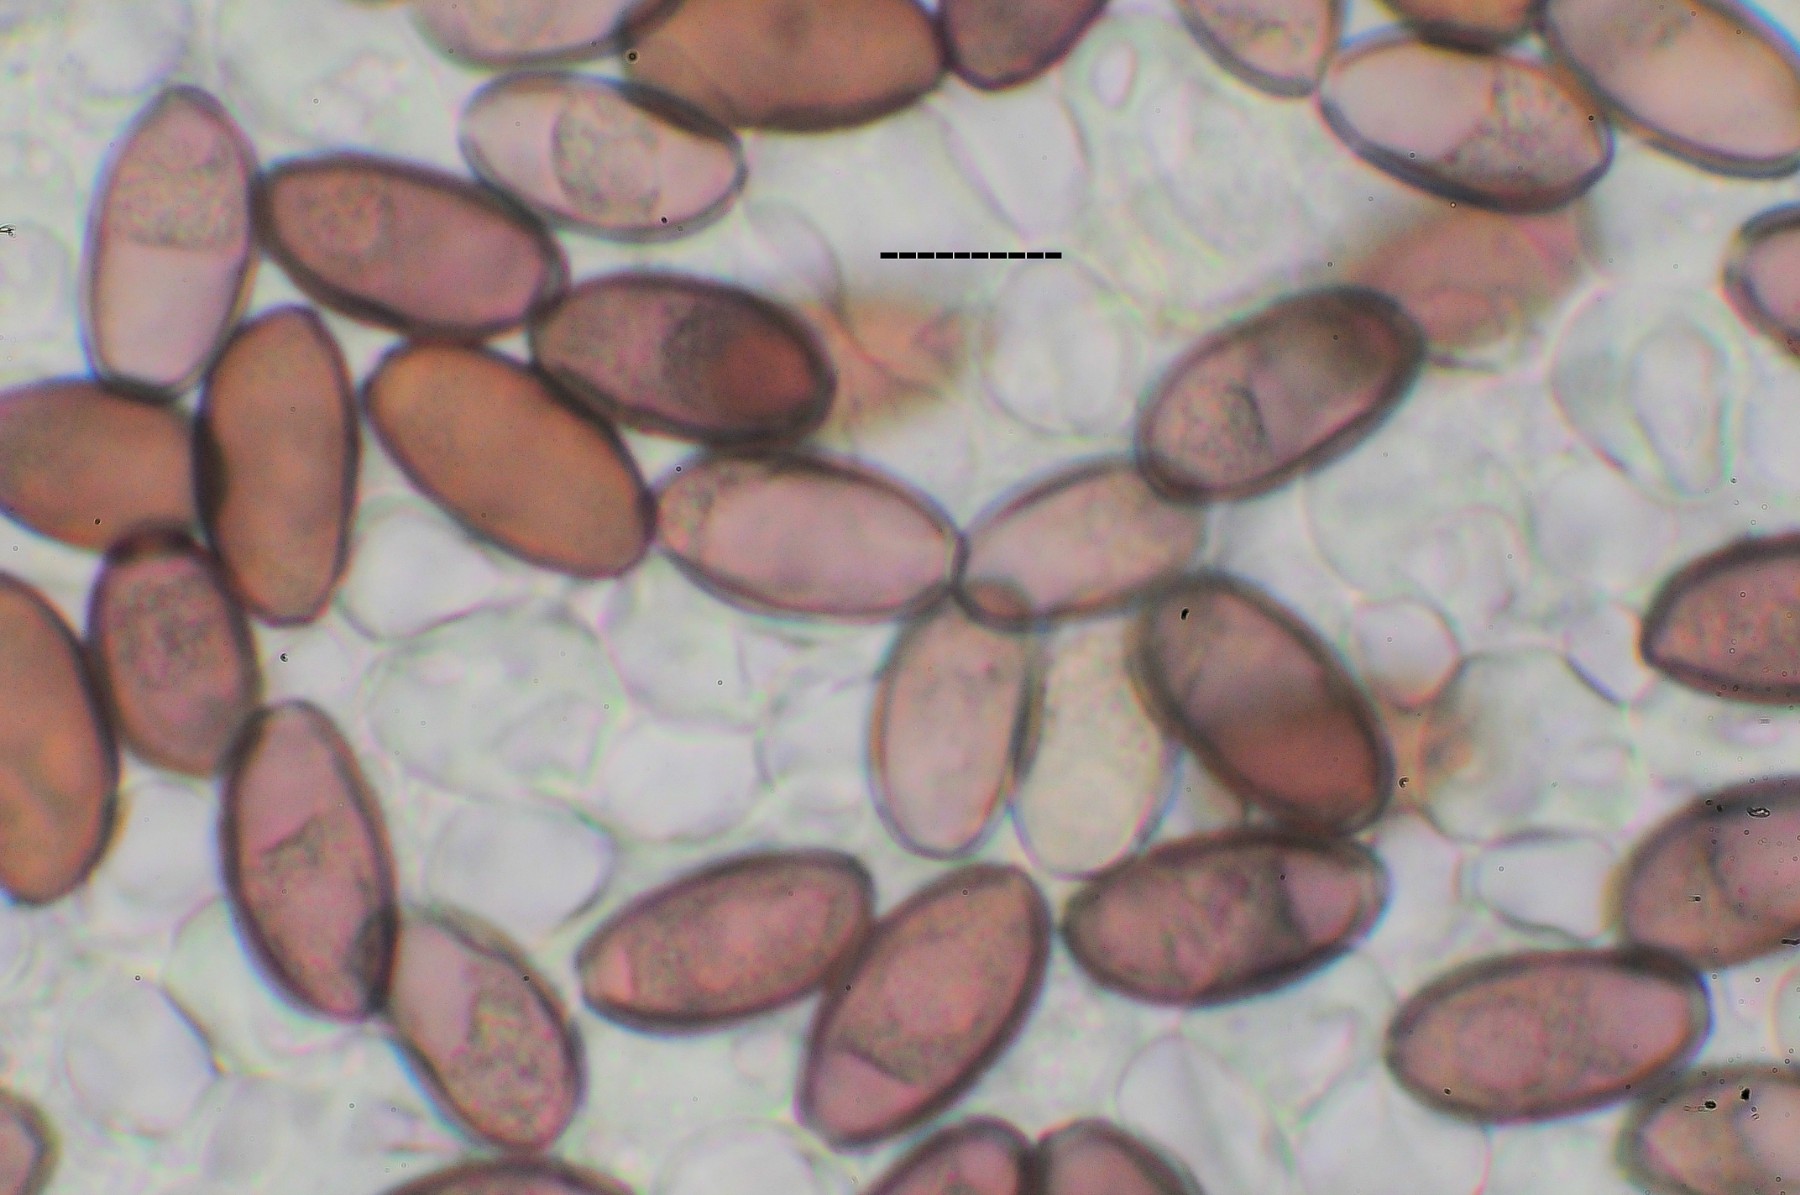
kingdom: Fungi
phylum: Basidiomycota
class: Agaricomycetes
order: Agaricales
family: Strophariaceae
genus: Protostropharia
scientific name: Protostropharia semiglobata
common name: halvkugleformet bredblad
